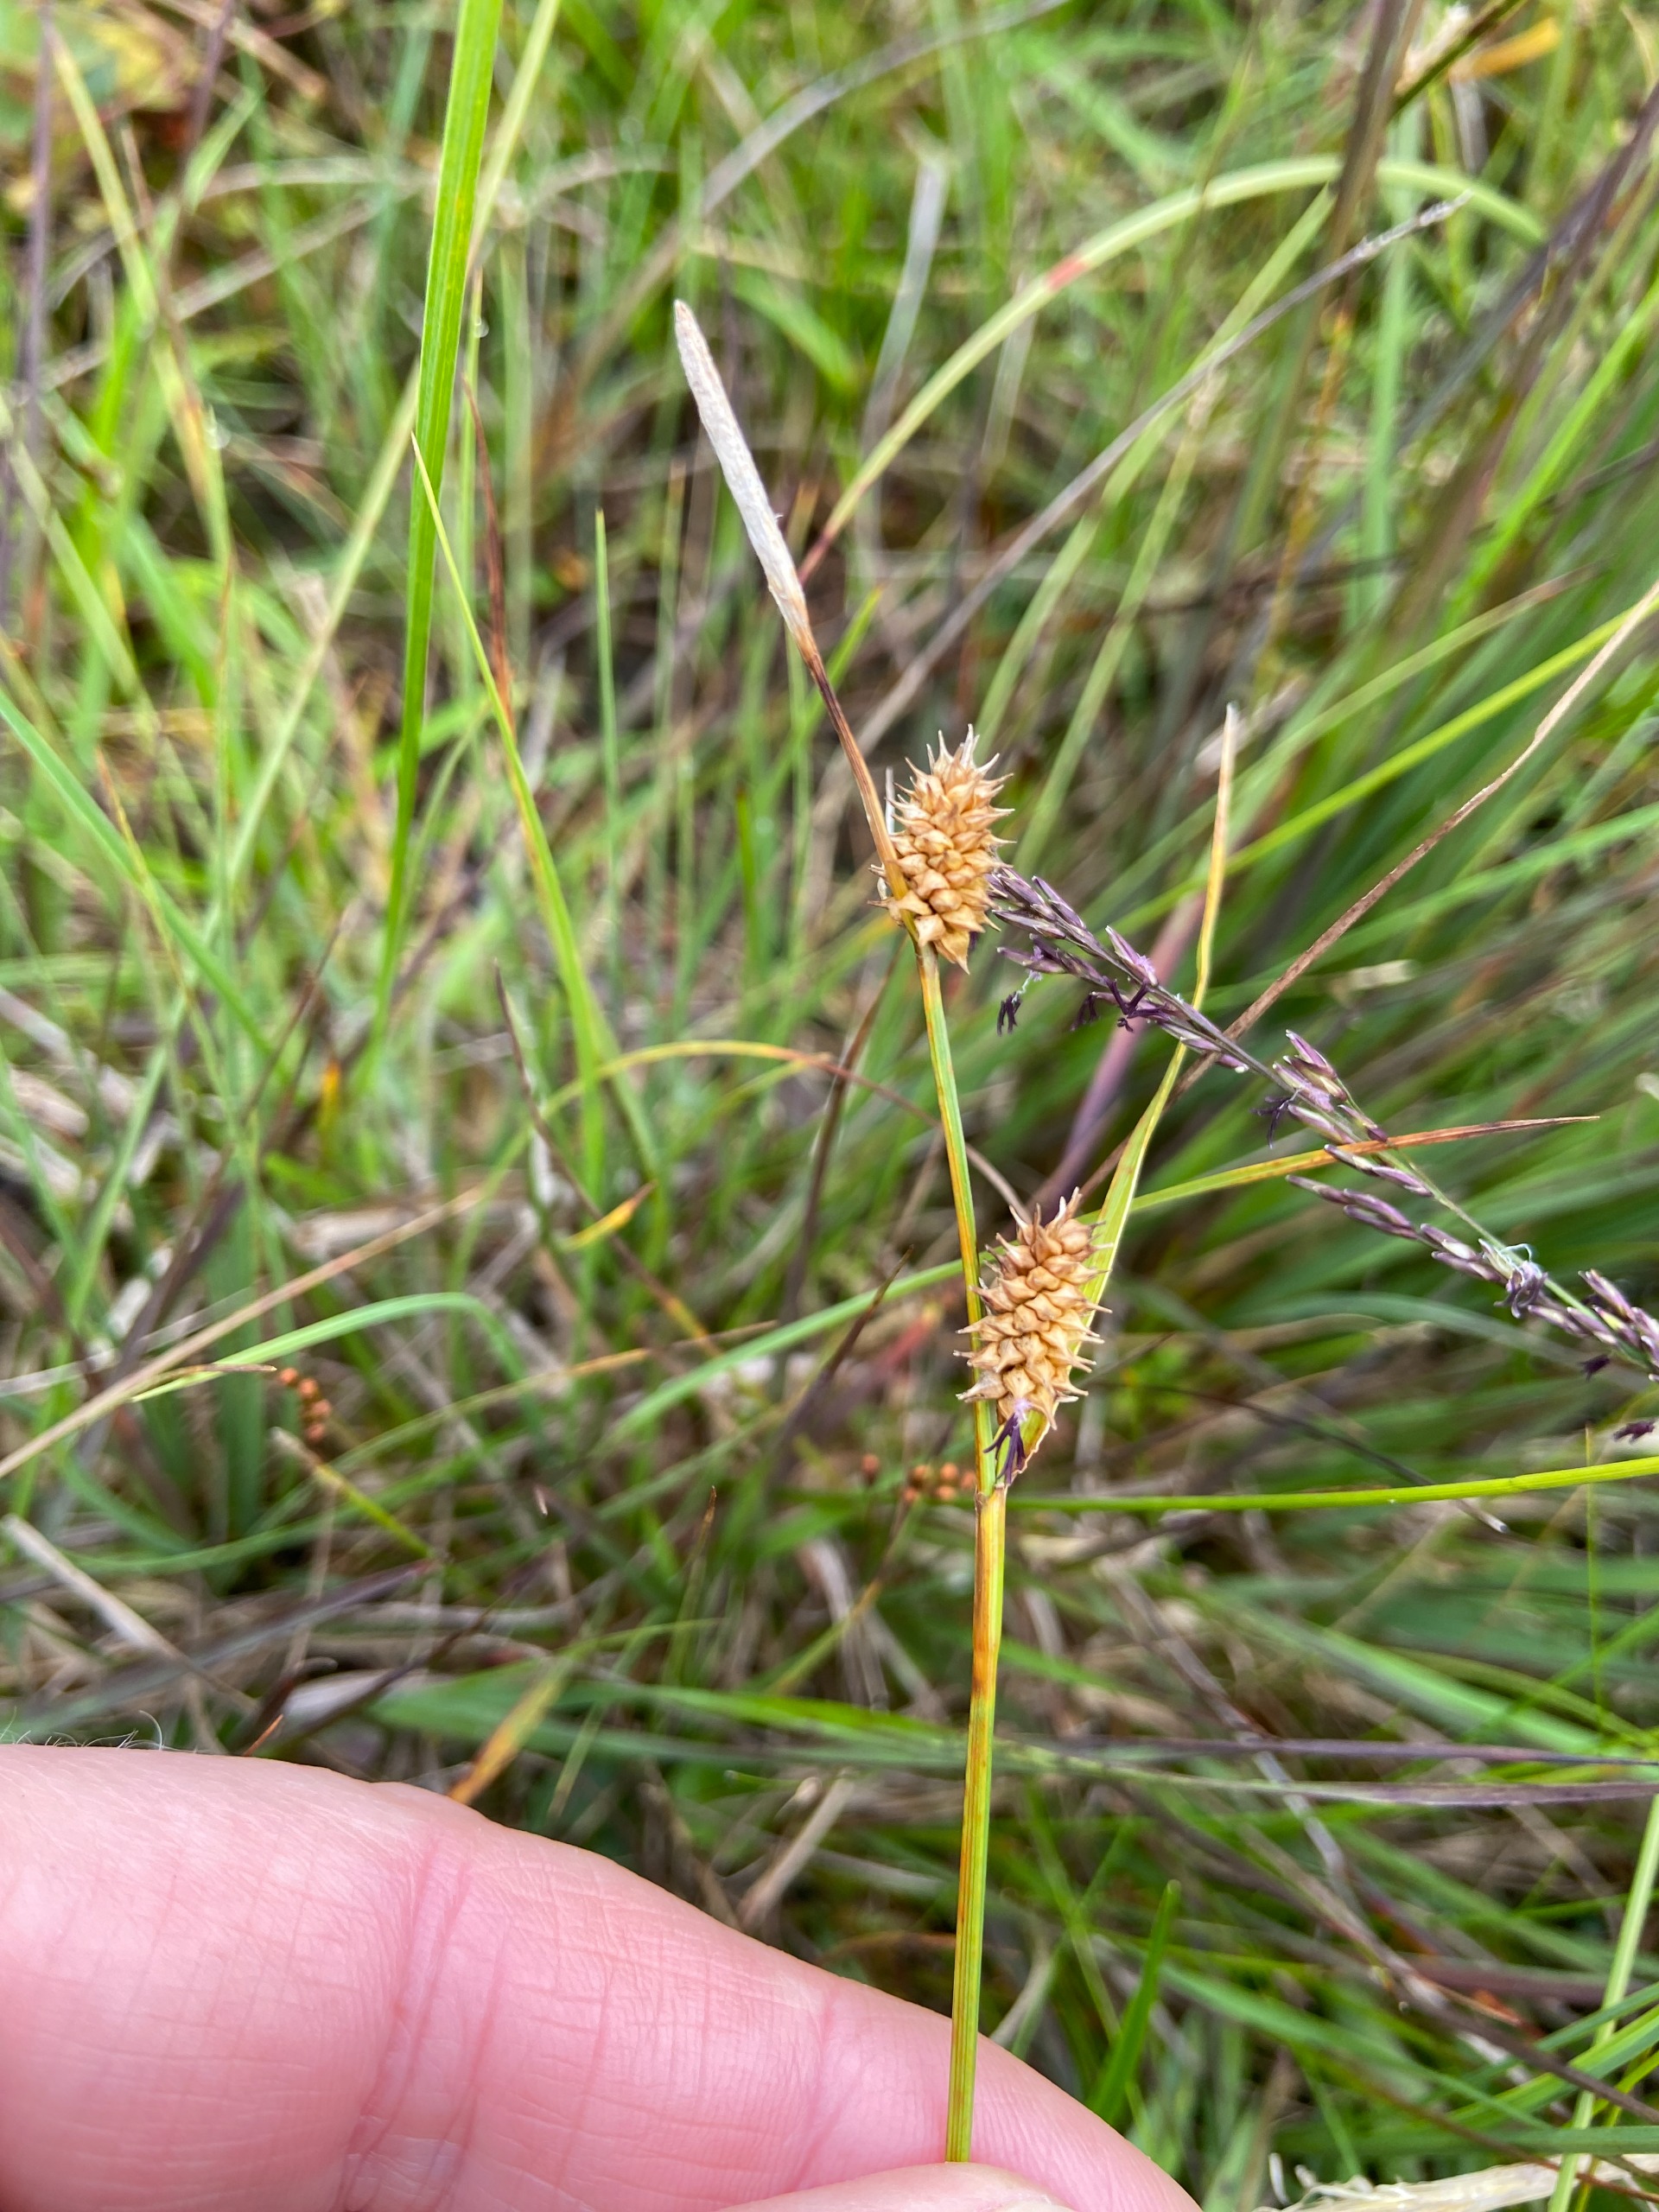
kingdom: Plantae
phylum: Tracheophyta
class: Liliopsida
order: Poales
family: Cyperaceae
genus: Carex
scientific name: Carex lepidocarpa
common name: Krognæb-star
